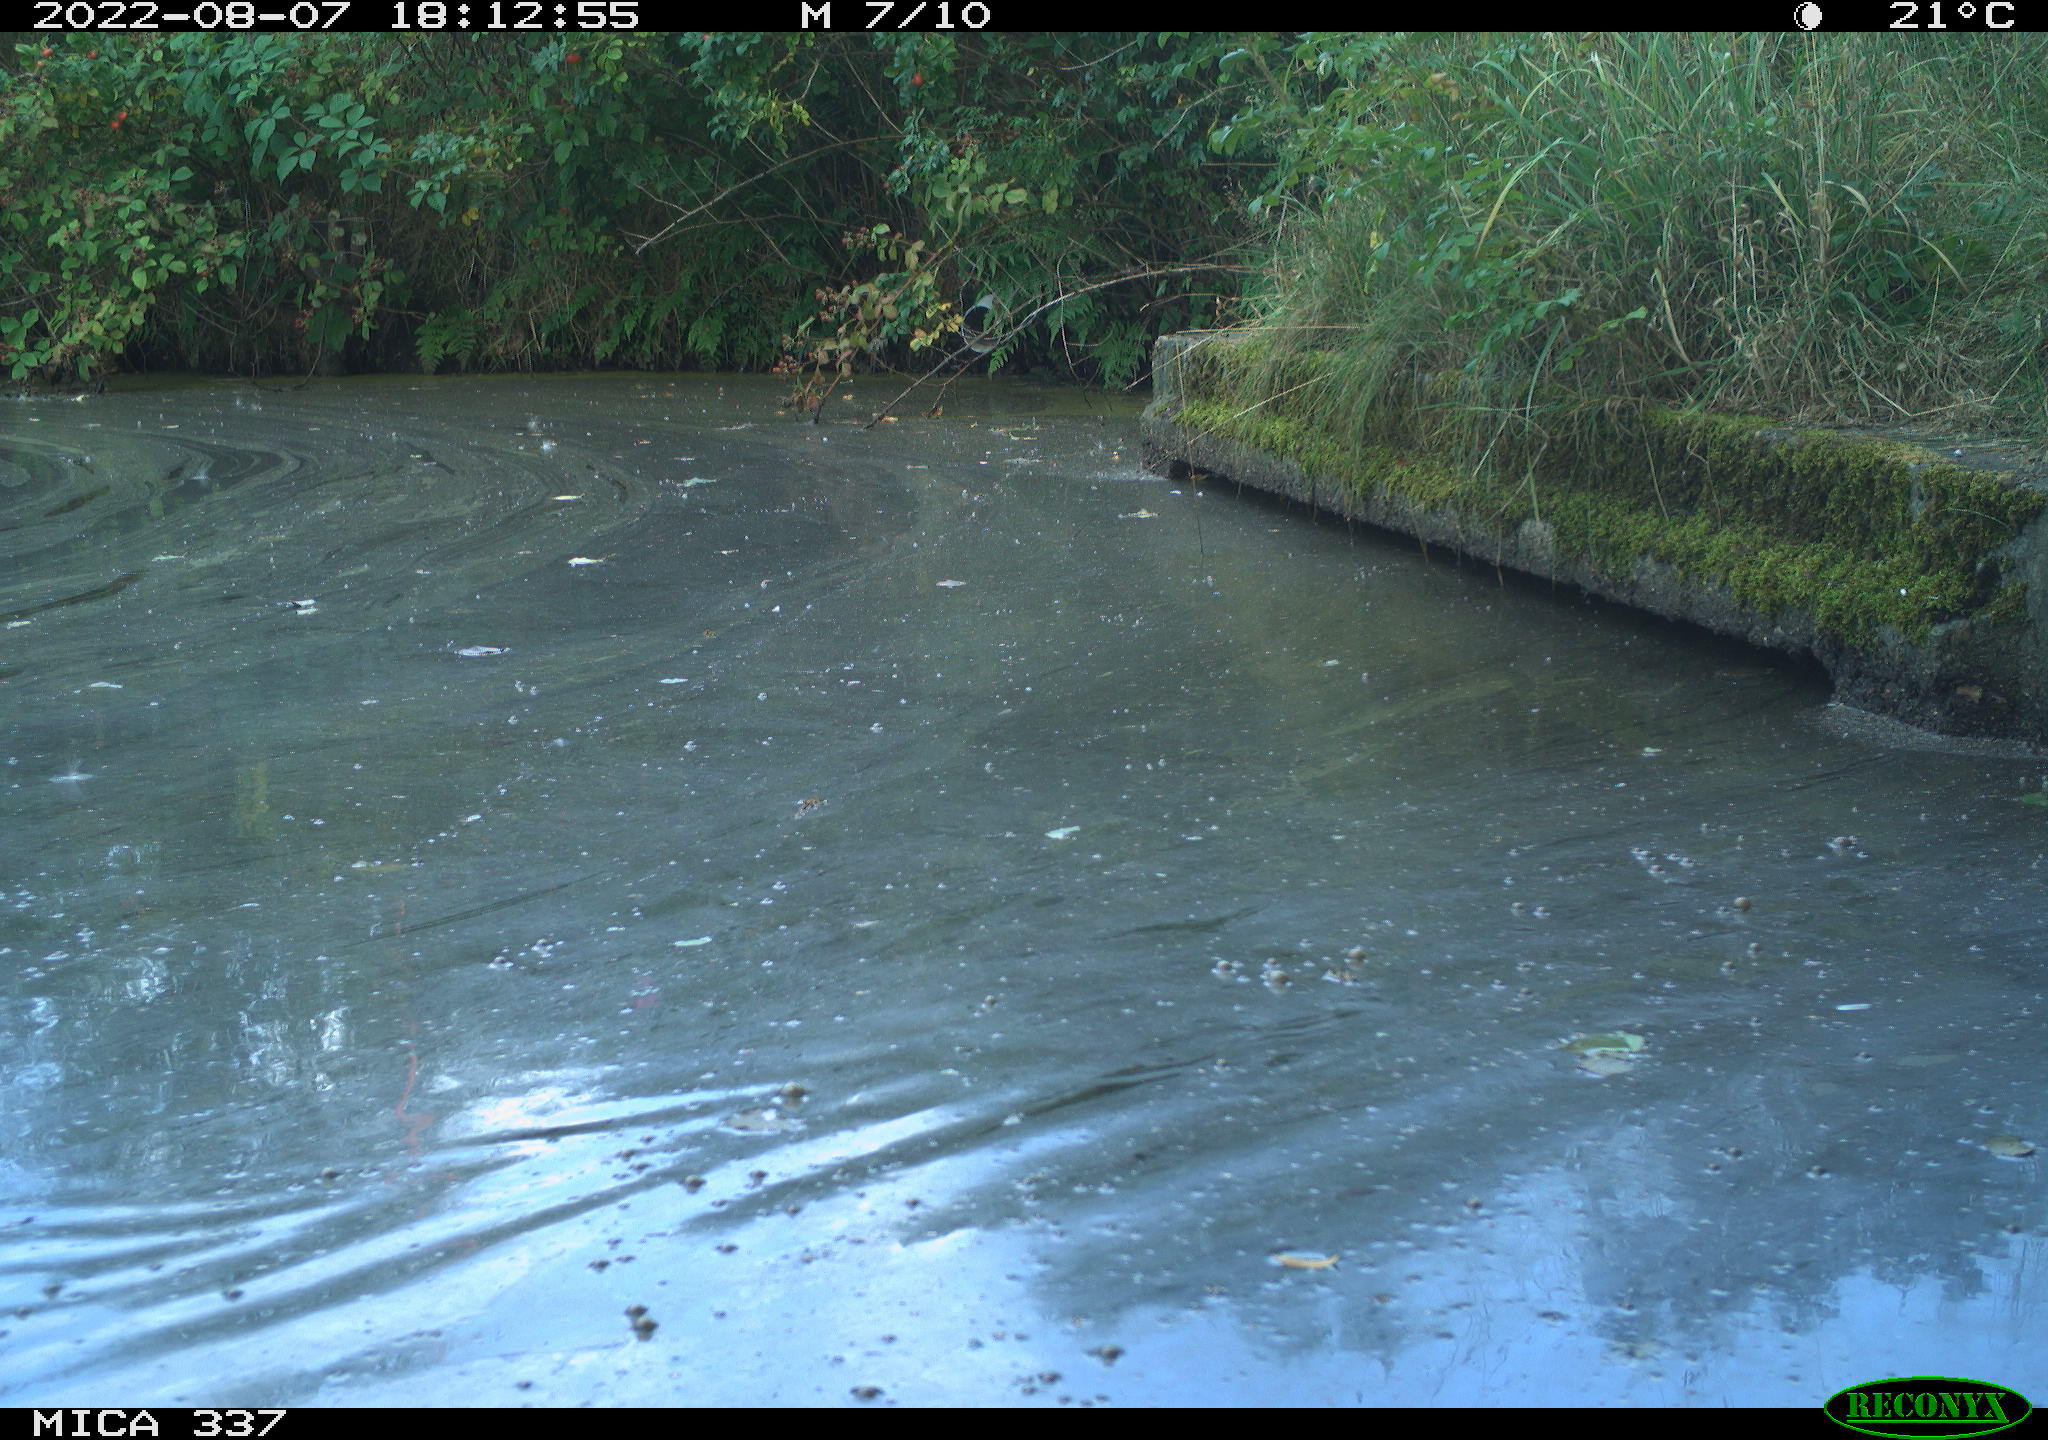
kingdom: Animalia
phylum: Chordata
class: Aves
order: Gruiformes
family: Rallidae
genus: Gallinula
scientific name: Gallinula chloropus
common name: Common moorhen
